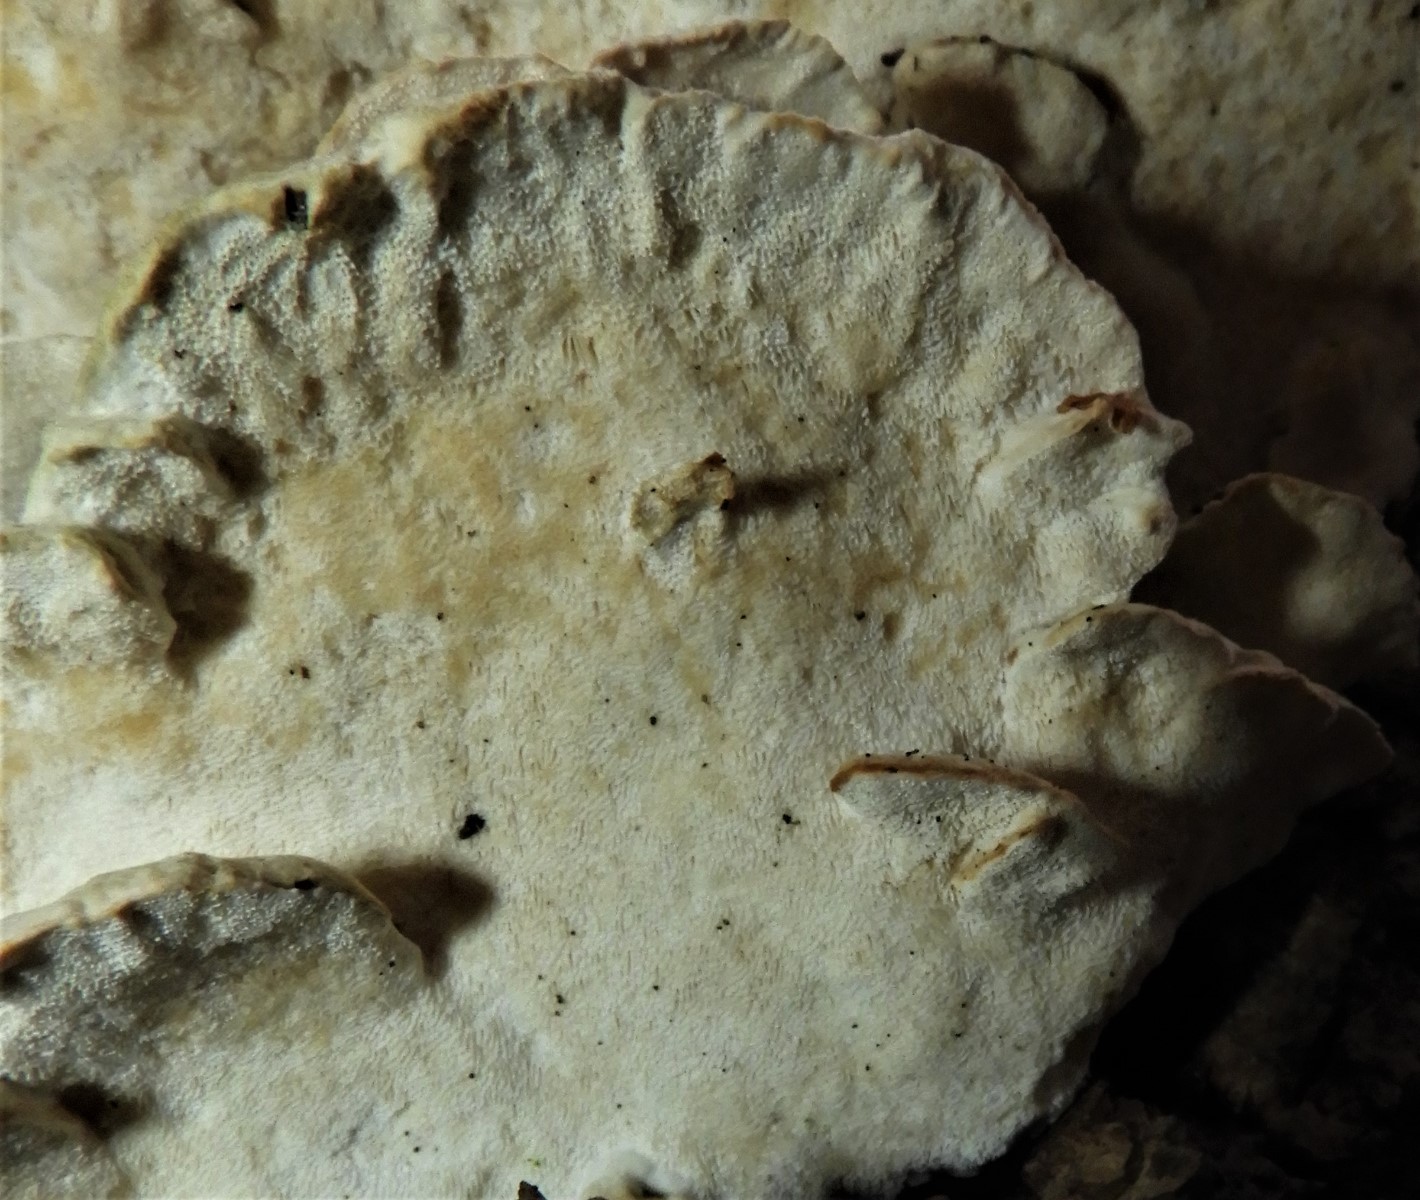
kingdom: Fungi
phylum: Basidiomycota
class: Agaricomycetes
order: Hymenochaetales
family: Oxyporaceae
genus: Oxyporus
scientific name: Oxyporus populinus
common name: sammenvokset trylleporesvamp
